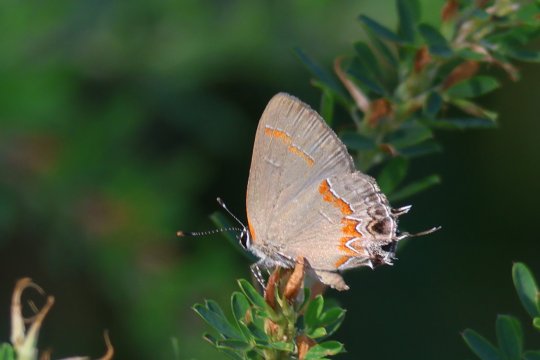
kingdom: Animalia
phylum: Arthropoda
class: Insecta
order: Lepidoptera
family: Lycaenidae
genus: Calycopis
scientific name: Calycopis cecrops
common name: Red-banded Hairstreak
